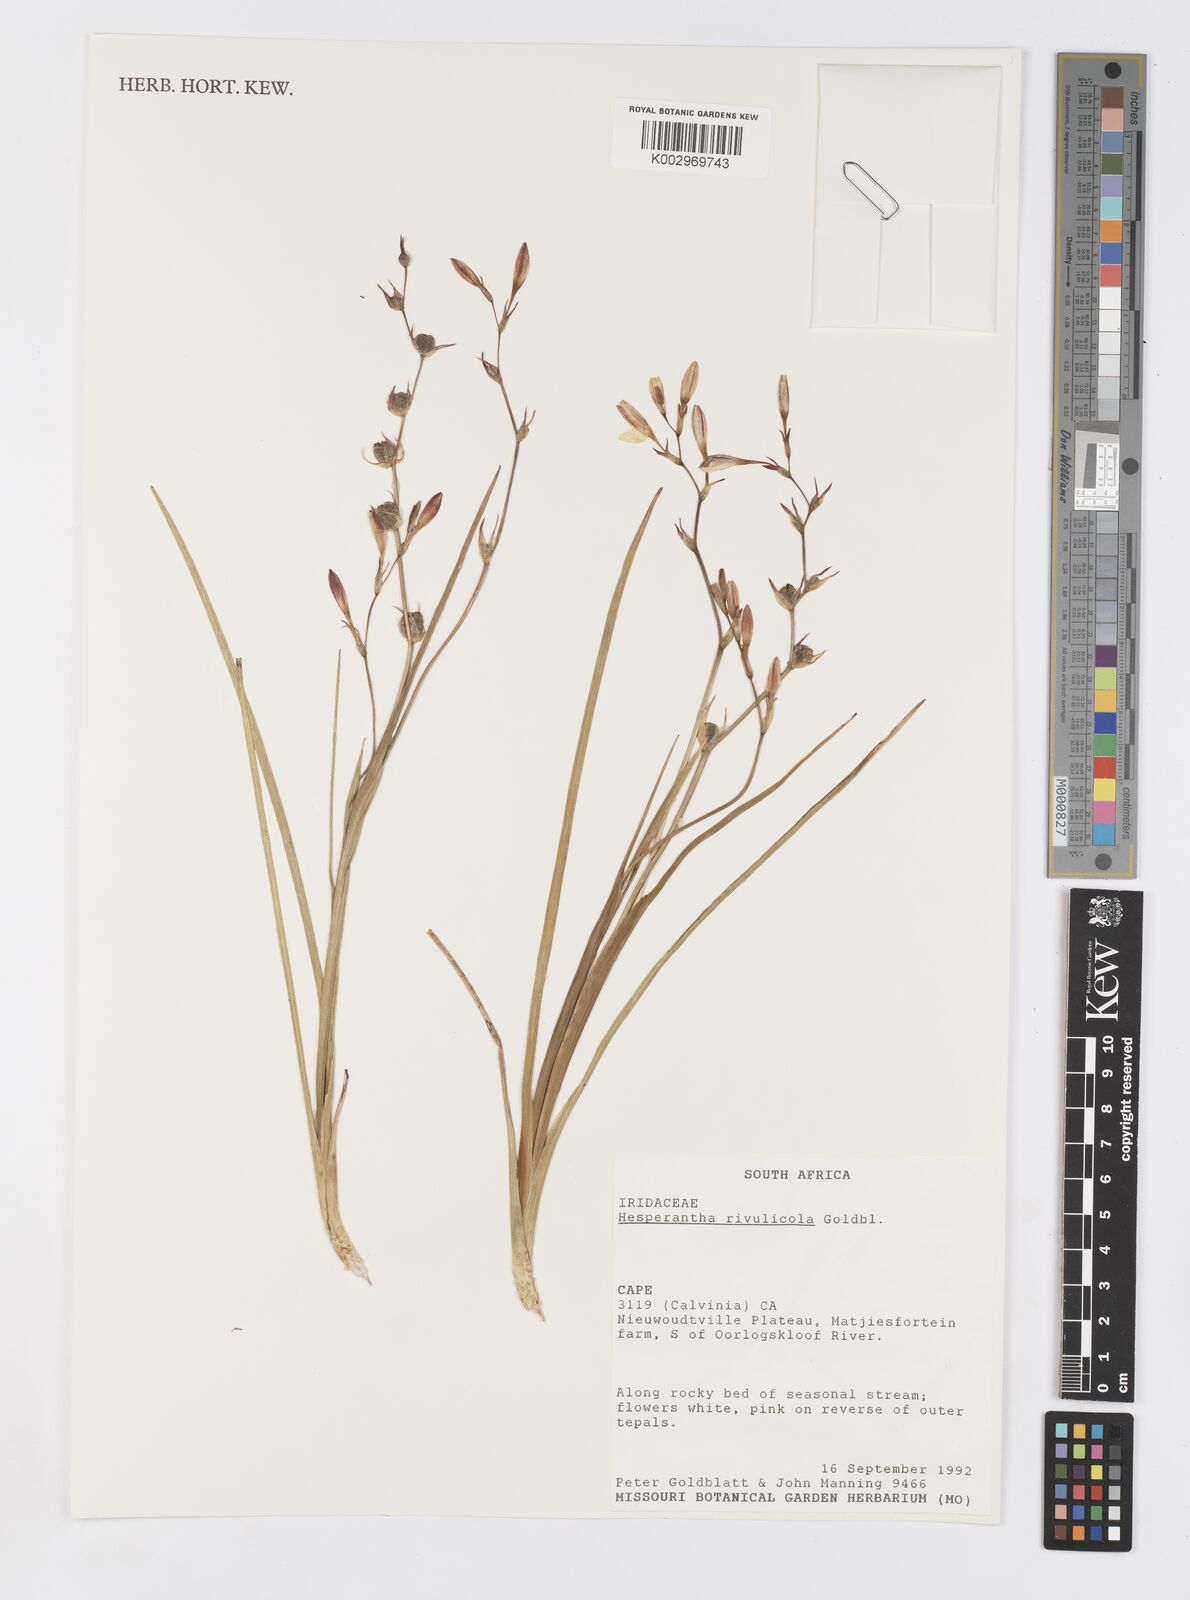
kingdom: Plantae
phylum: Tracheophyta
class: Liliopsida
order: Asparagales
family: Iridaceae
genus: Hesperantha
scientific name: Hesperantha rivulicola
